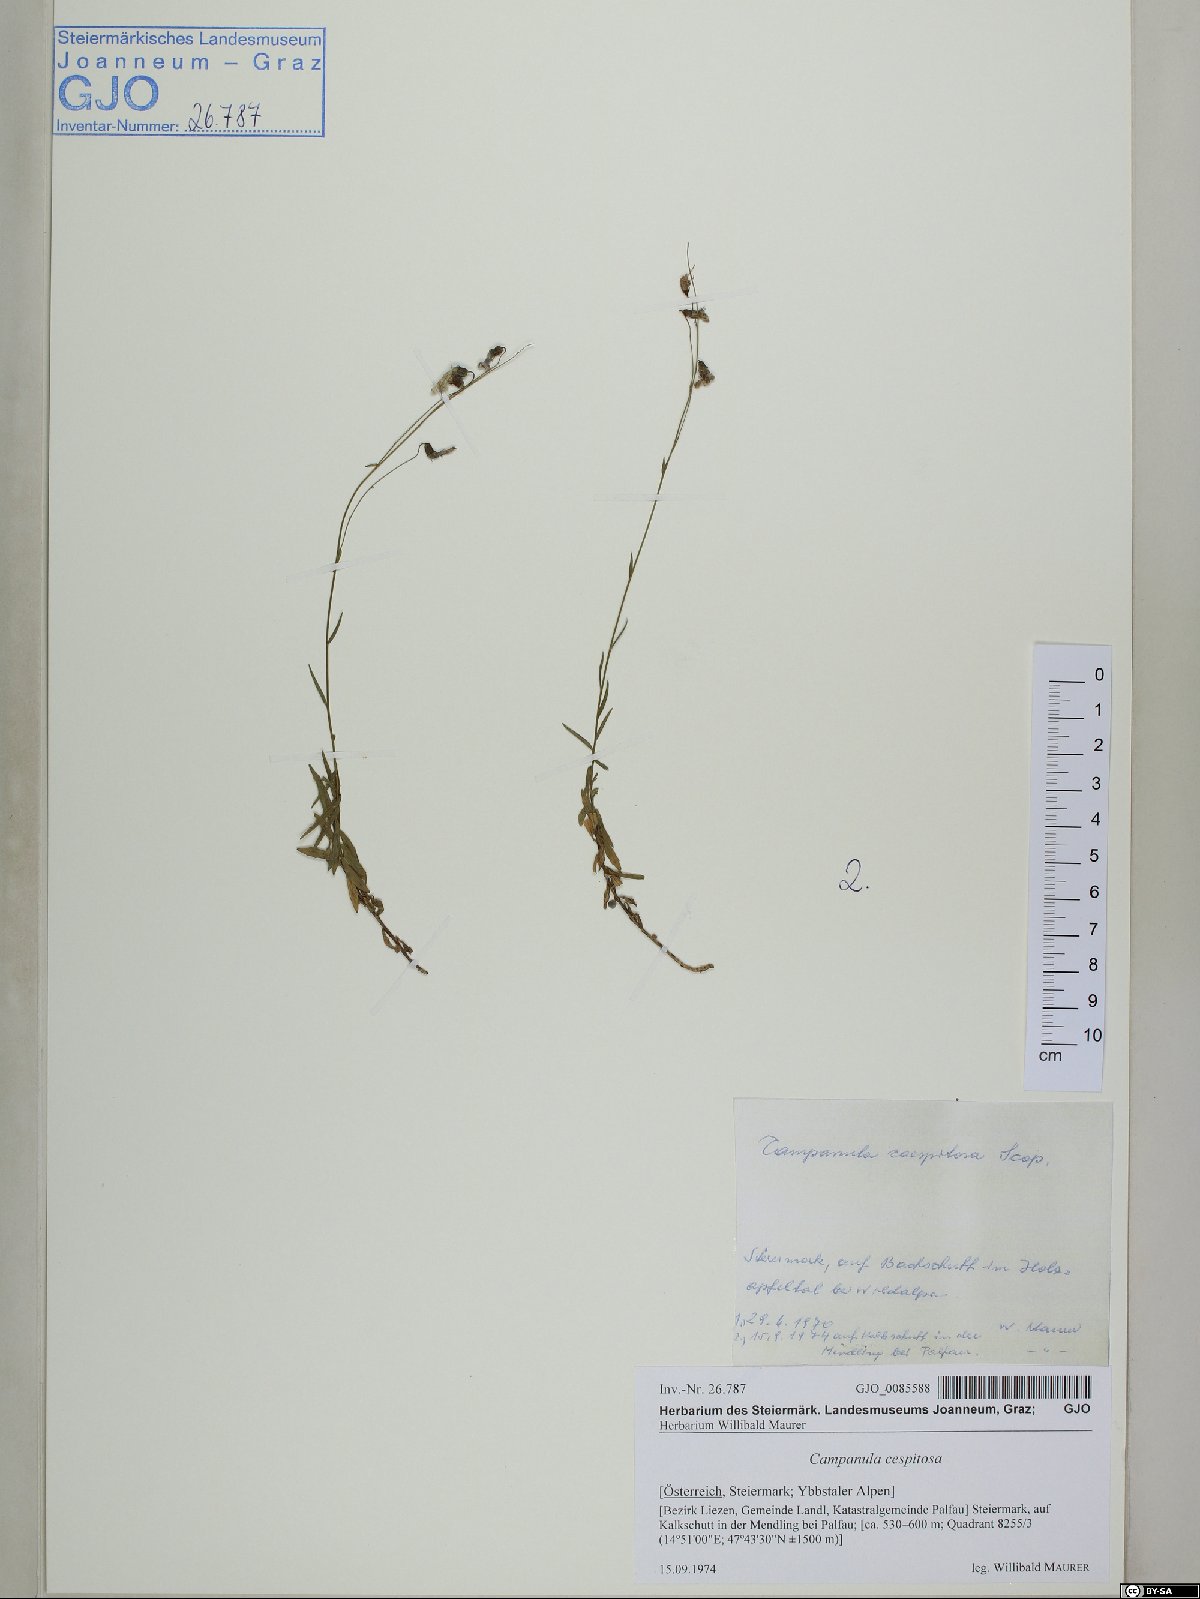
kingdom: Plantae
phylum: Tracheophyta
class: Magnoliopsida
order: Asterales
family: Campanulaceae
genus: Campanula
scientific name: Campanula cespitosa
